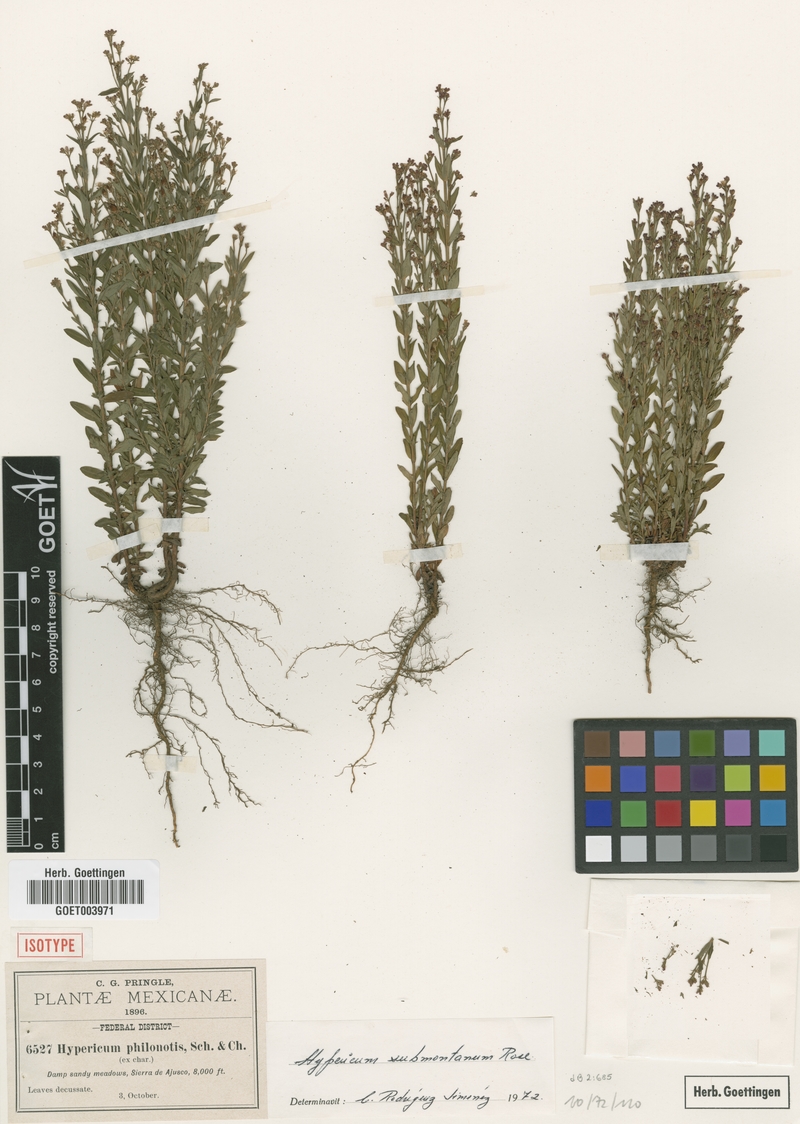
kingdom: Plantae
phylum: Tracheophyta
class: Magnoliopsida
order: Malpighiales
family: Hypericaceae
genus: Hypericum
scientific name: Hypericum philonotis
